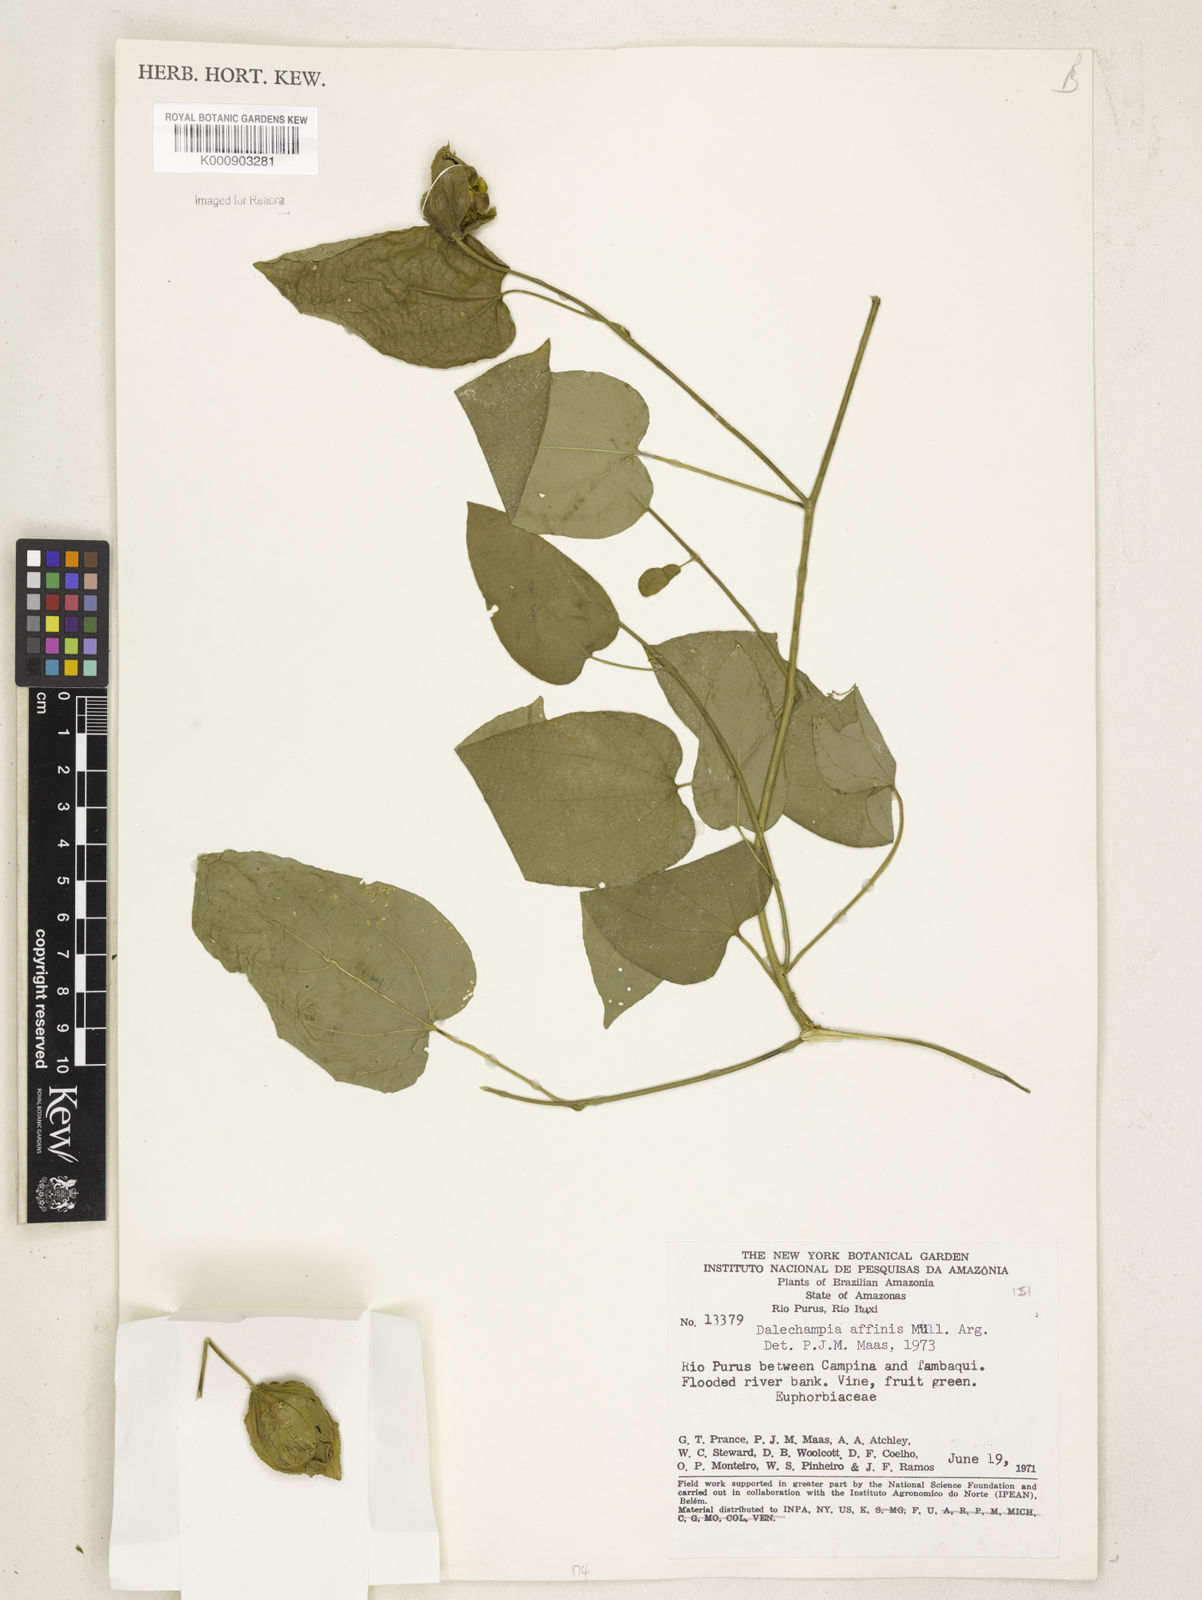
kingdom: Plantae
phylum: Tracheophyta
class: Magnoliopsida
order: Malpighiales
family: Euphorbiaceae
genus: Dalechampia
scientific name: Dalechampia
